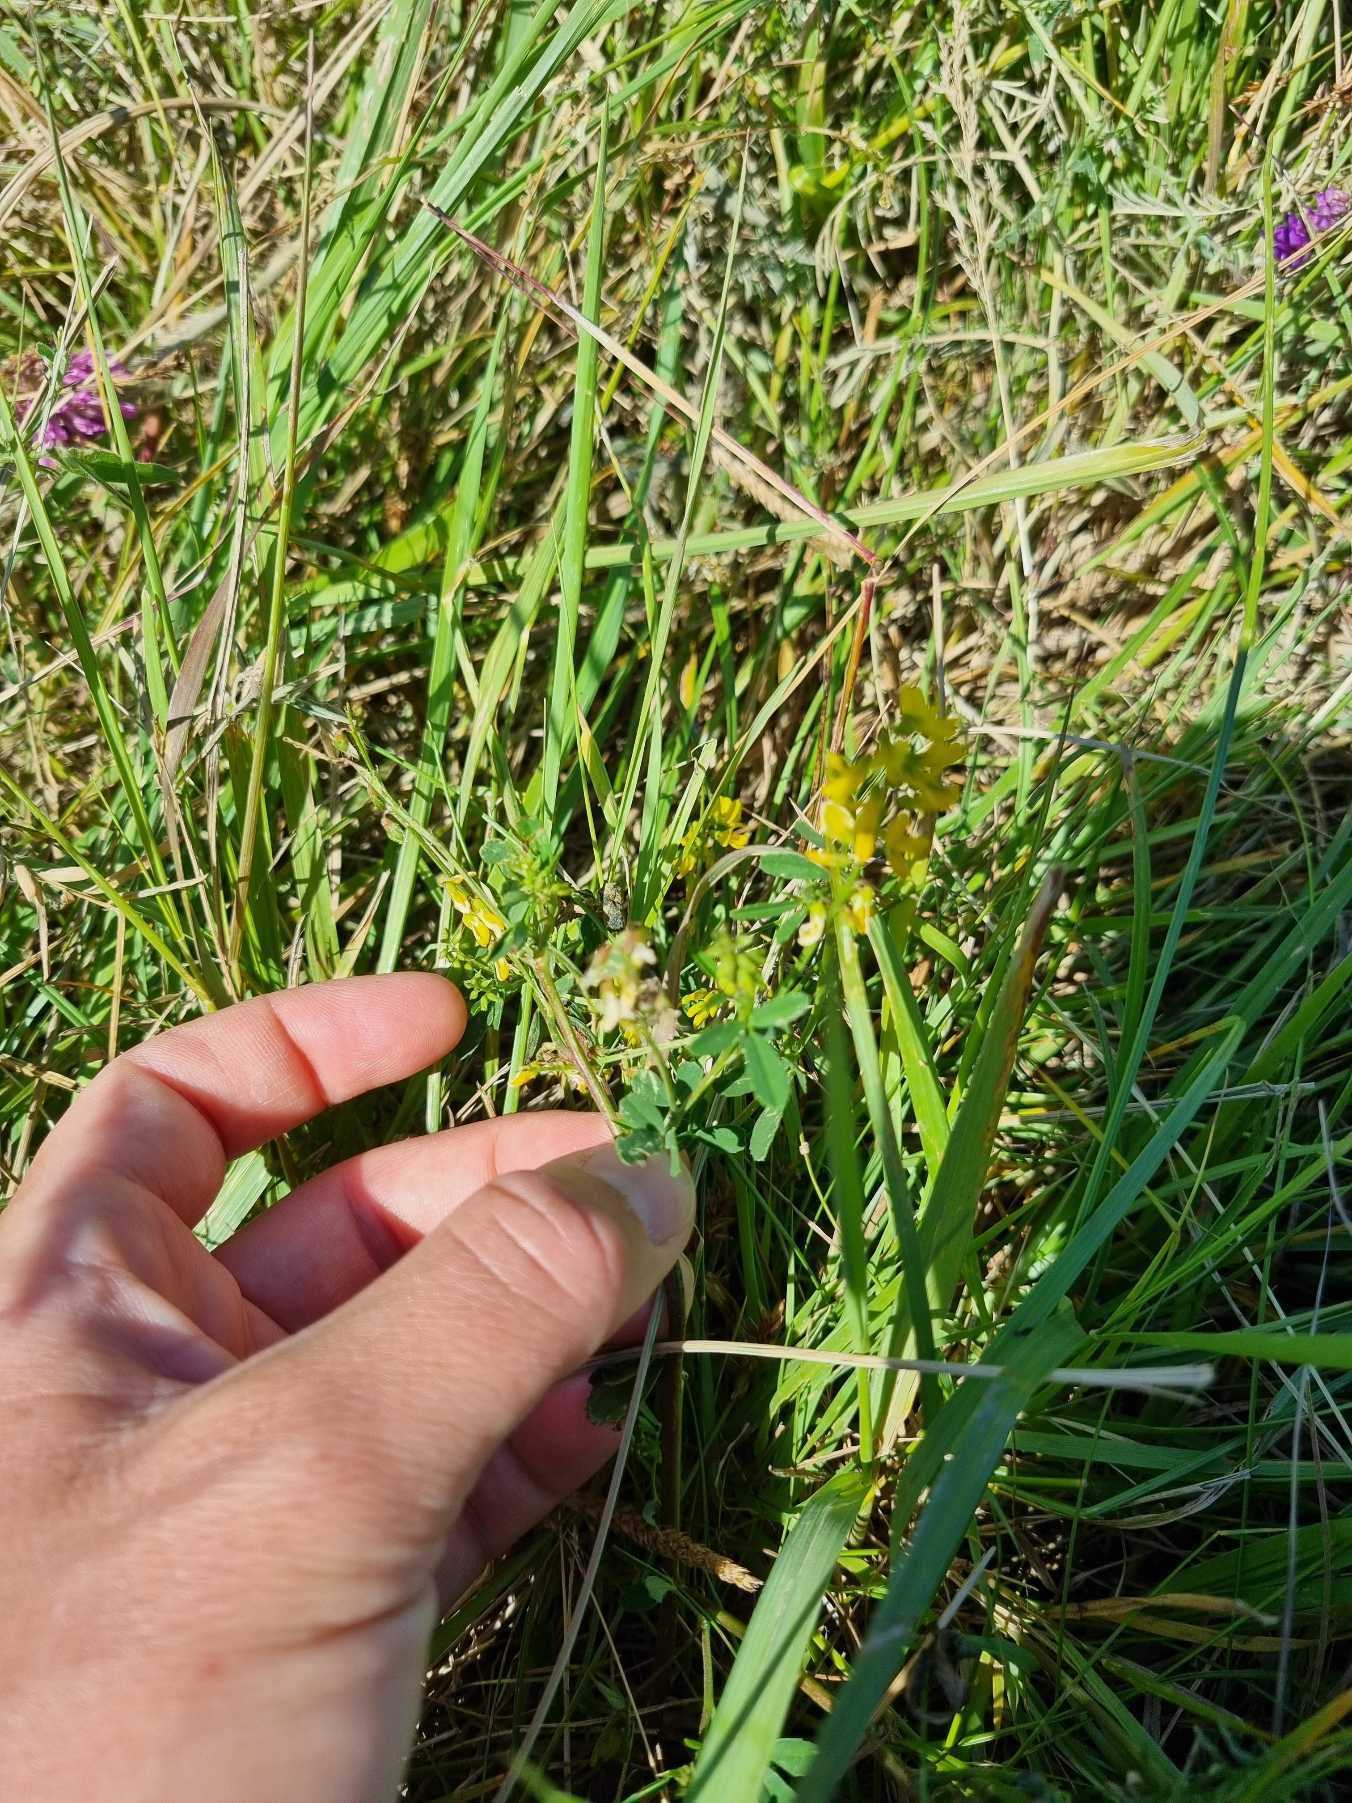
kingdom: Plantae
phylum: Tracheophyta
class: Magnoliopsida
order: Fabales
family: Fabaceae
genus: Melilotus
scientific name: Melilotus altissimus
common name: Høj stenkløver
